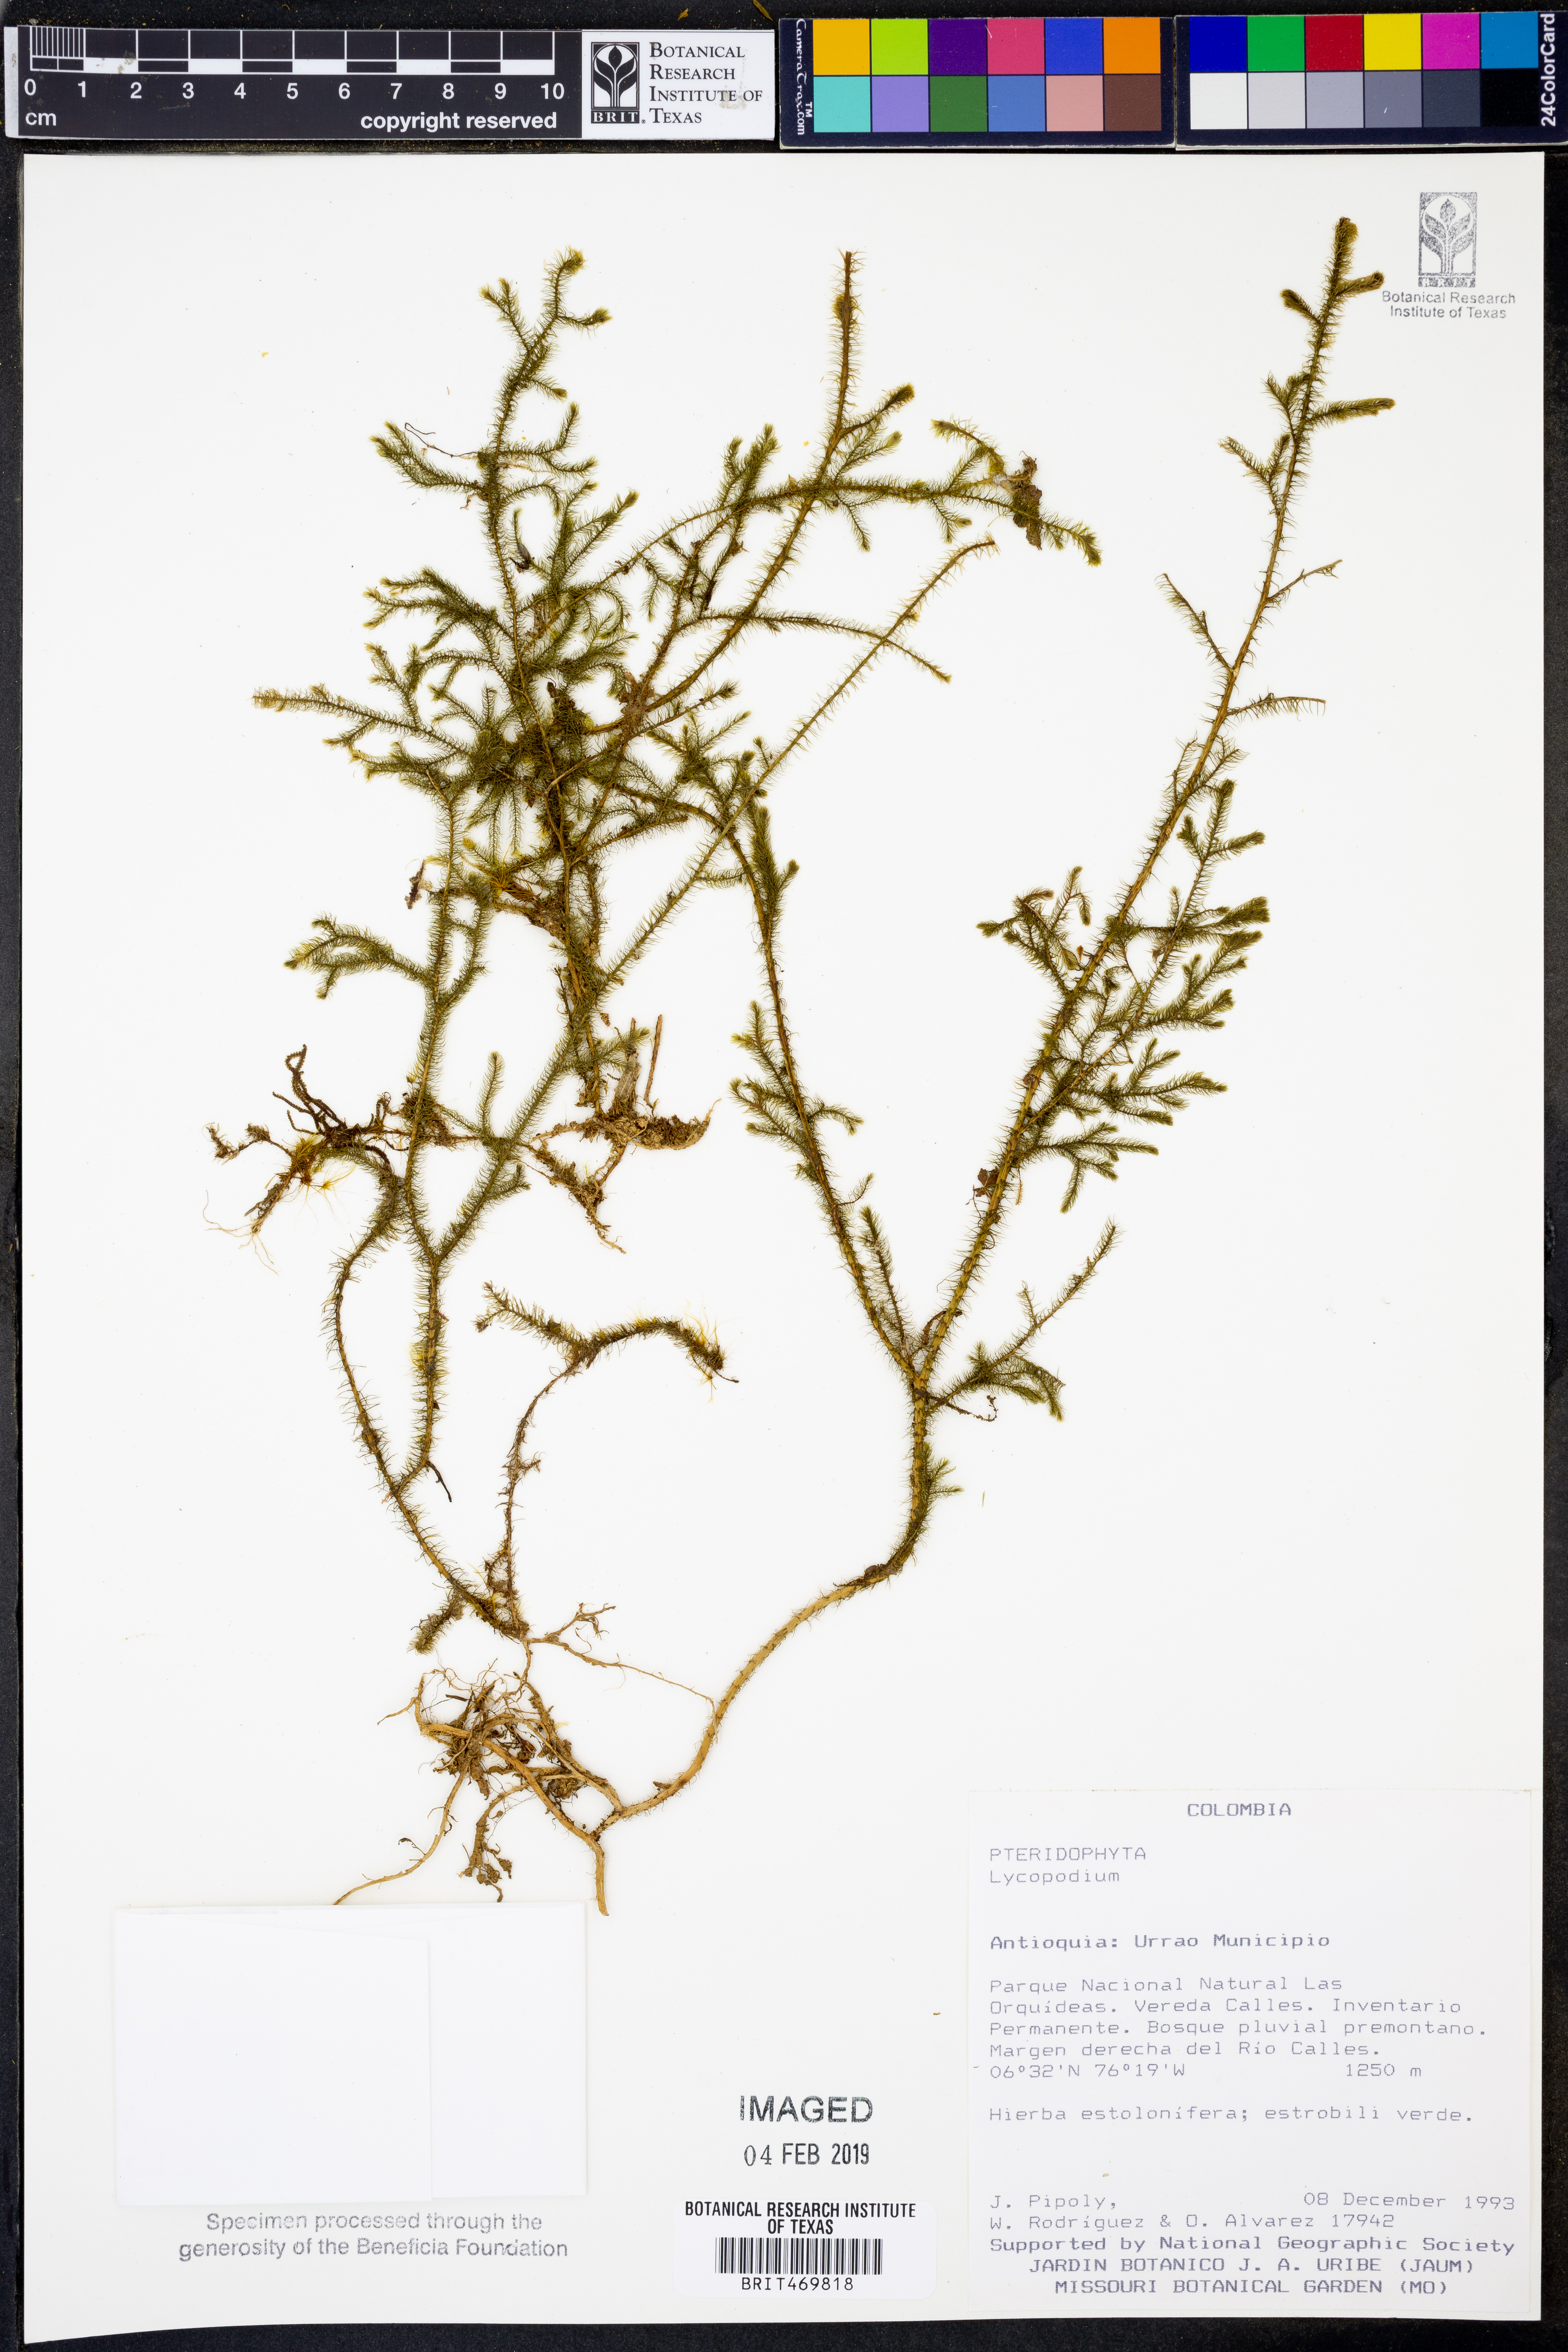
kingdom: Plantae
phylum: Tracheophyta
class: Lycopodiopsida
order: Lycopodiales
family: Lycopodiaceae
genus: Lycopodium
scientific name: Lycopodium
